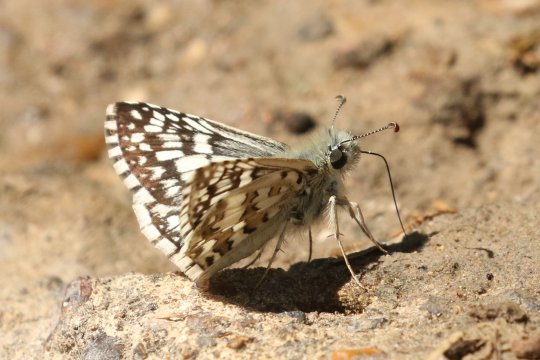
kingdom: Animalia
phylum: Arthropoda
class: Insecta
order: Lepidoptera
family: Hesperiidae
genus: Pyrgus
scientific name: Pyrgus communis
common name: White Checkered-Skipper
